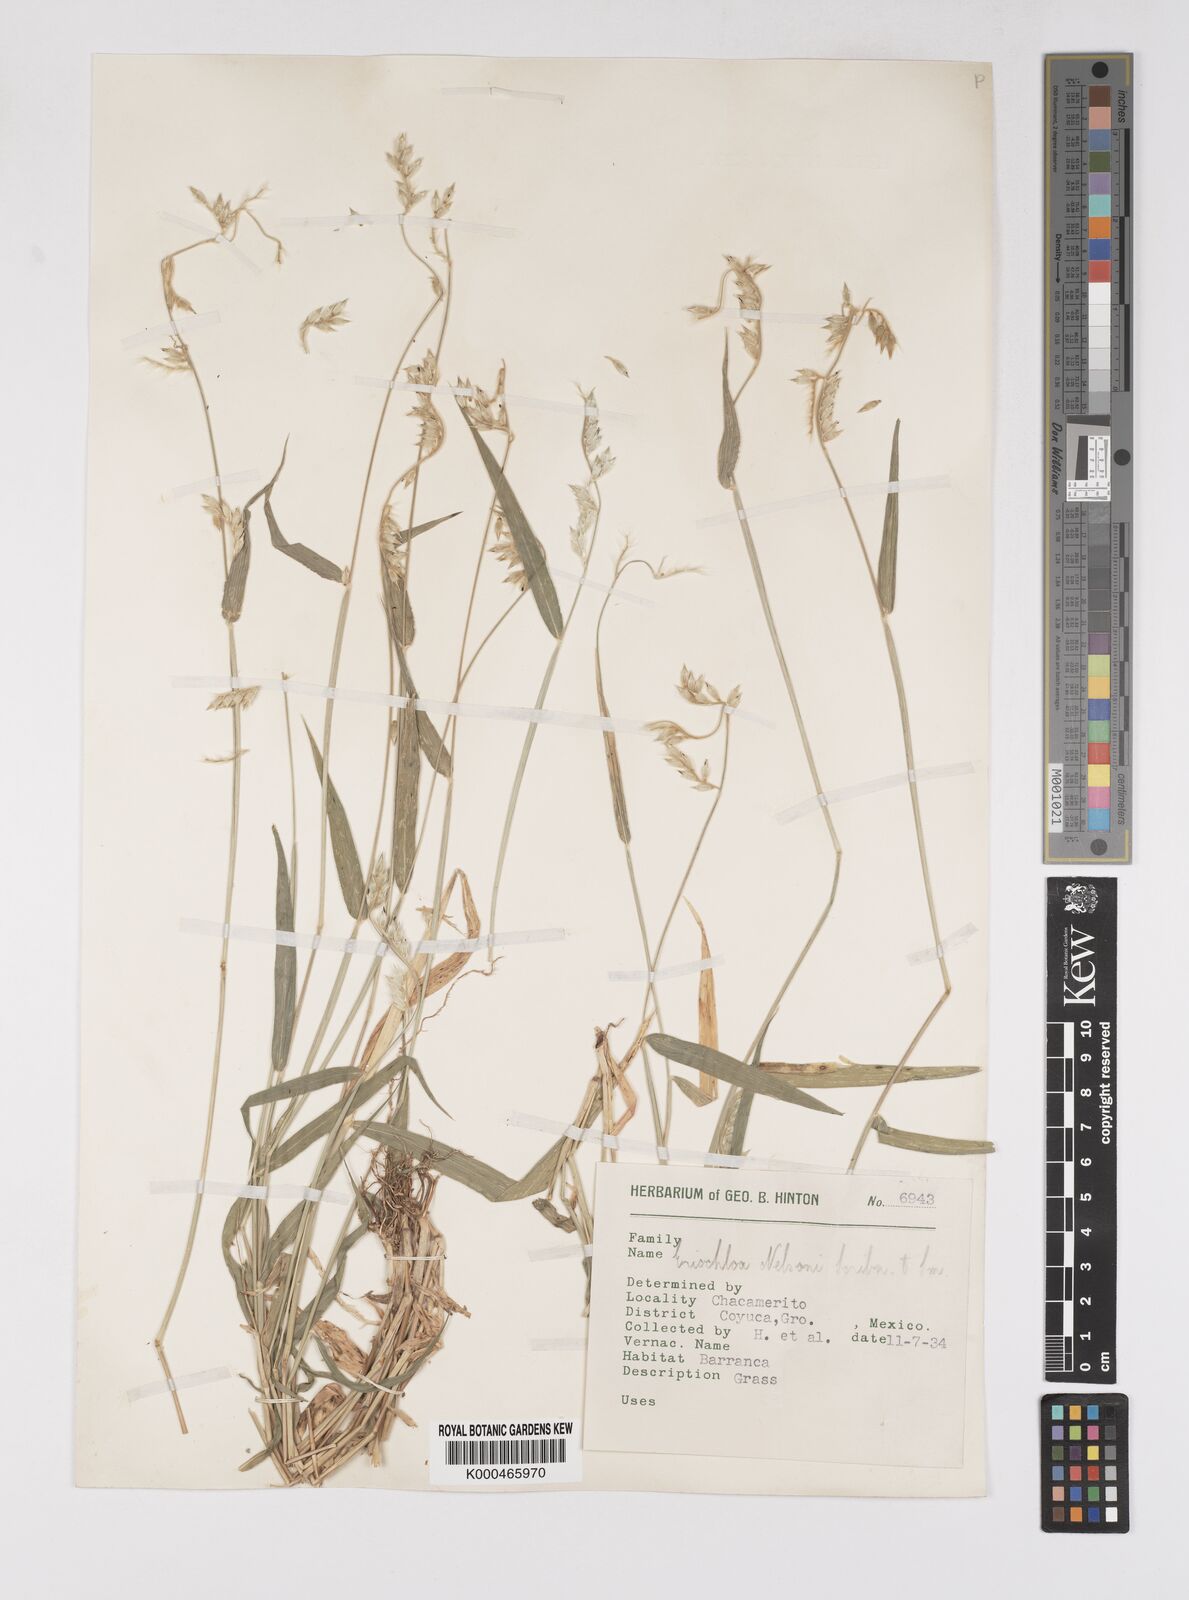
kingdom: Plantae
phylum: Tracheophyta
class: Liliopsida
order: Poales
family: Poaceae
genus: Eriochloa
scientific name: Eriochloa nelsonii
